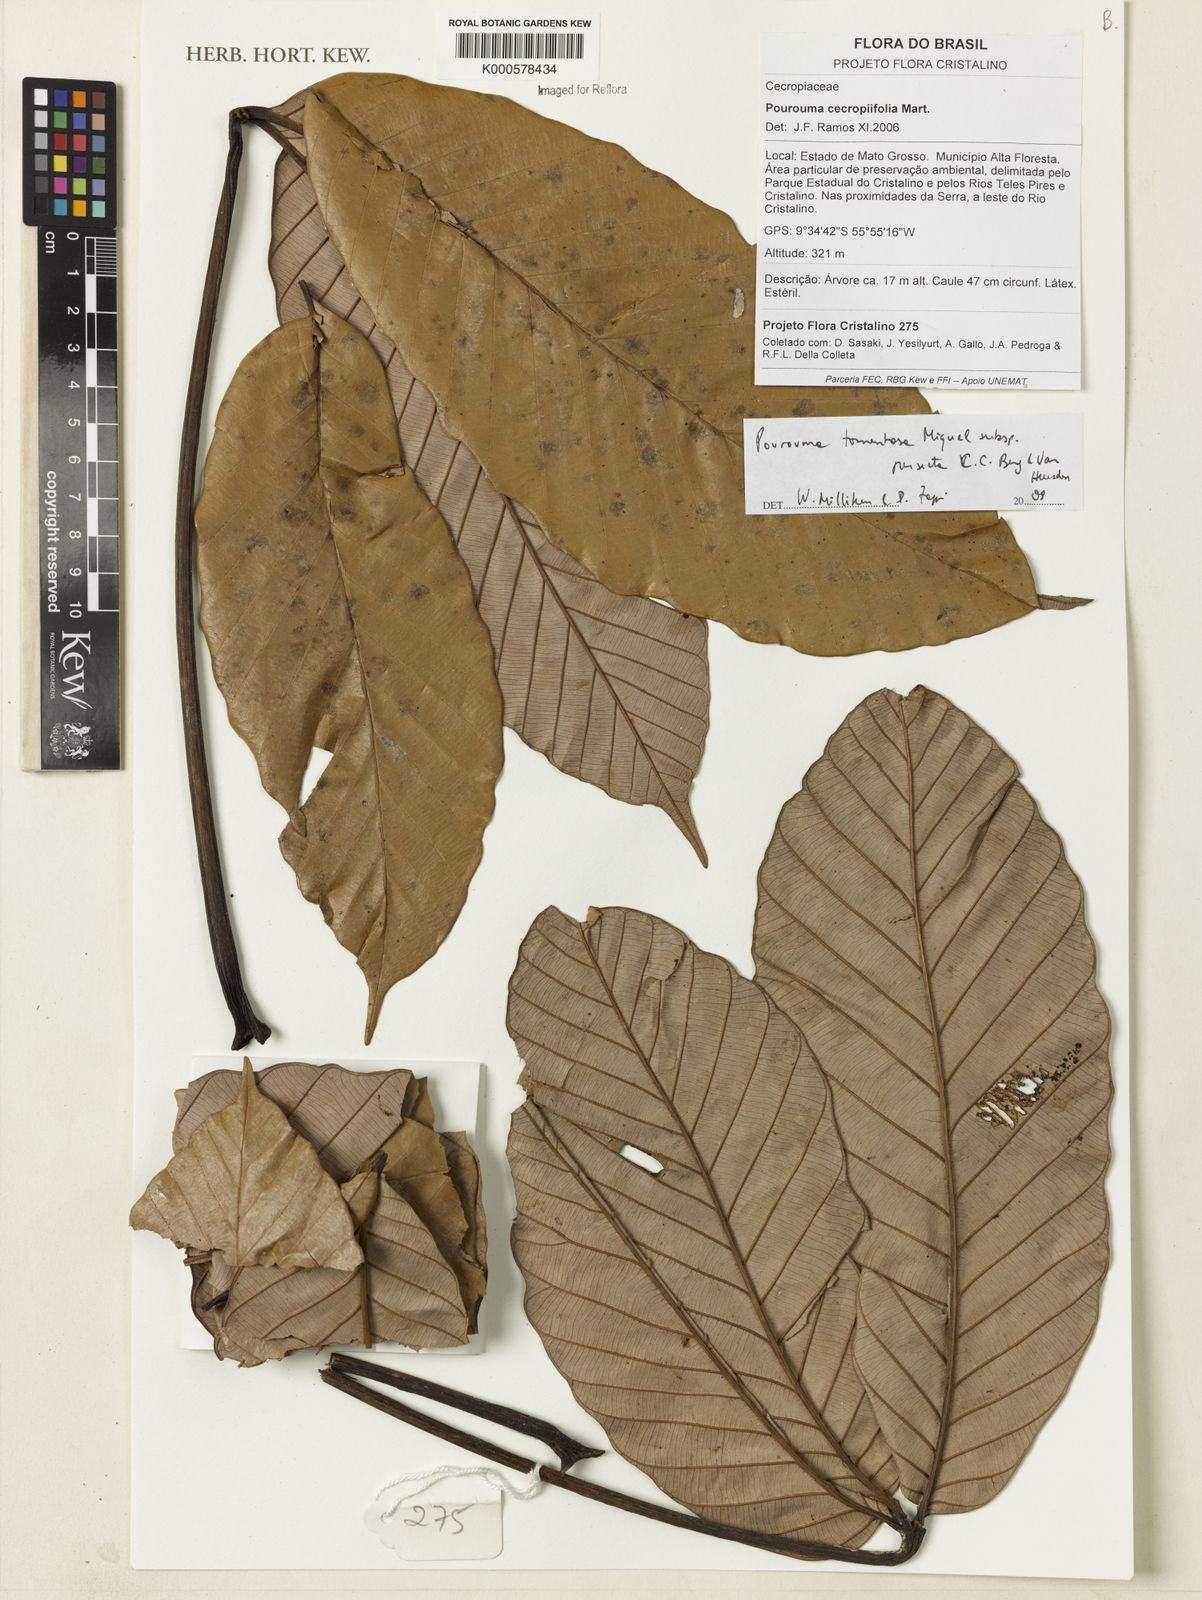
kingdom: Plantae
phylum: Tracheophyta
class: Magnoliopsida
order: Rosales
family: Urticaceae
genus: Pourouma
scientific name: Pourouma tomentosa
